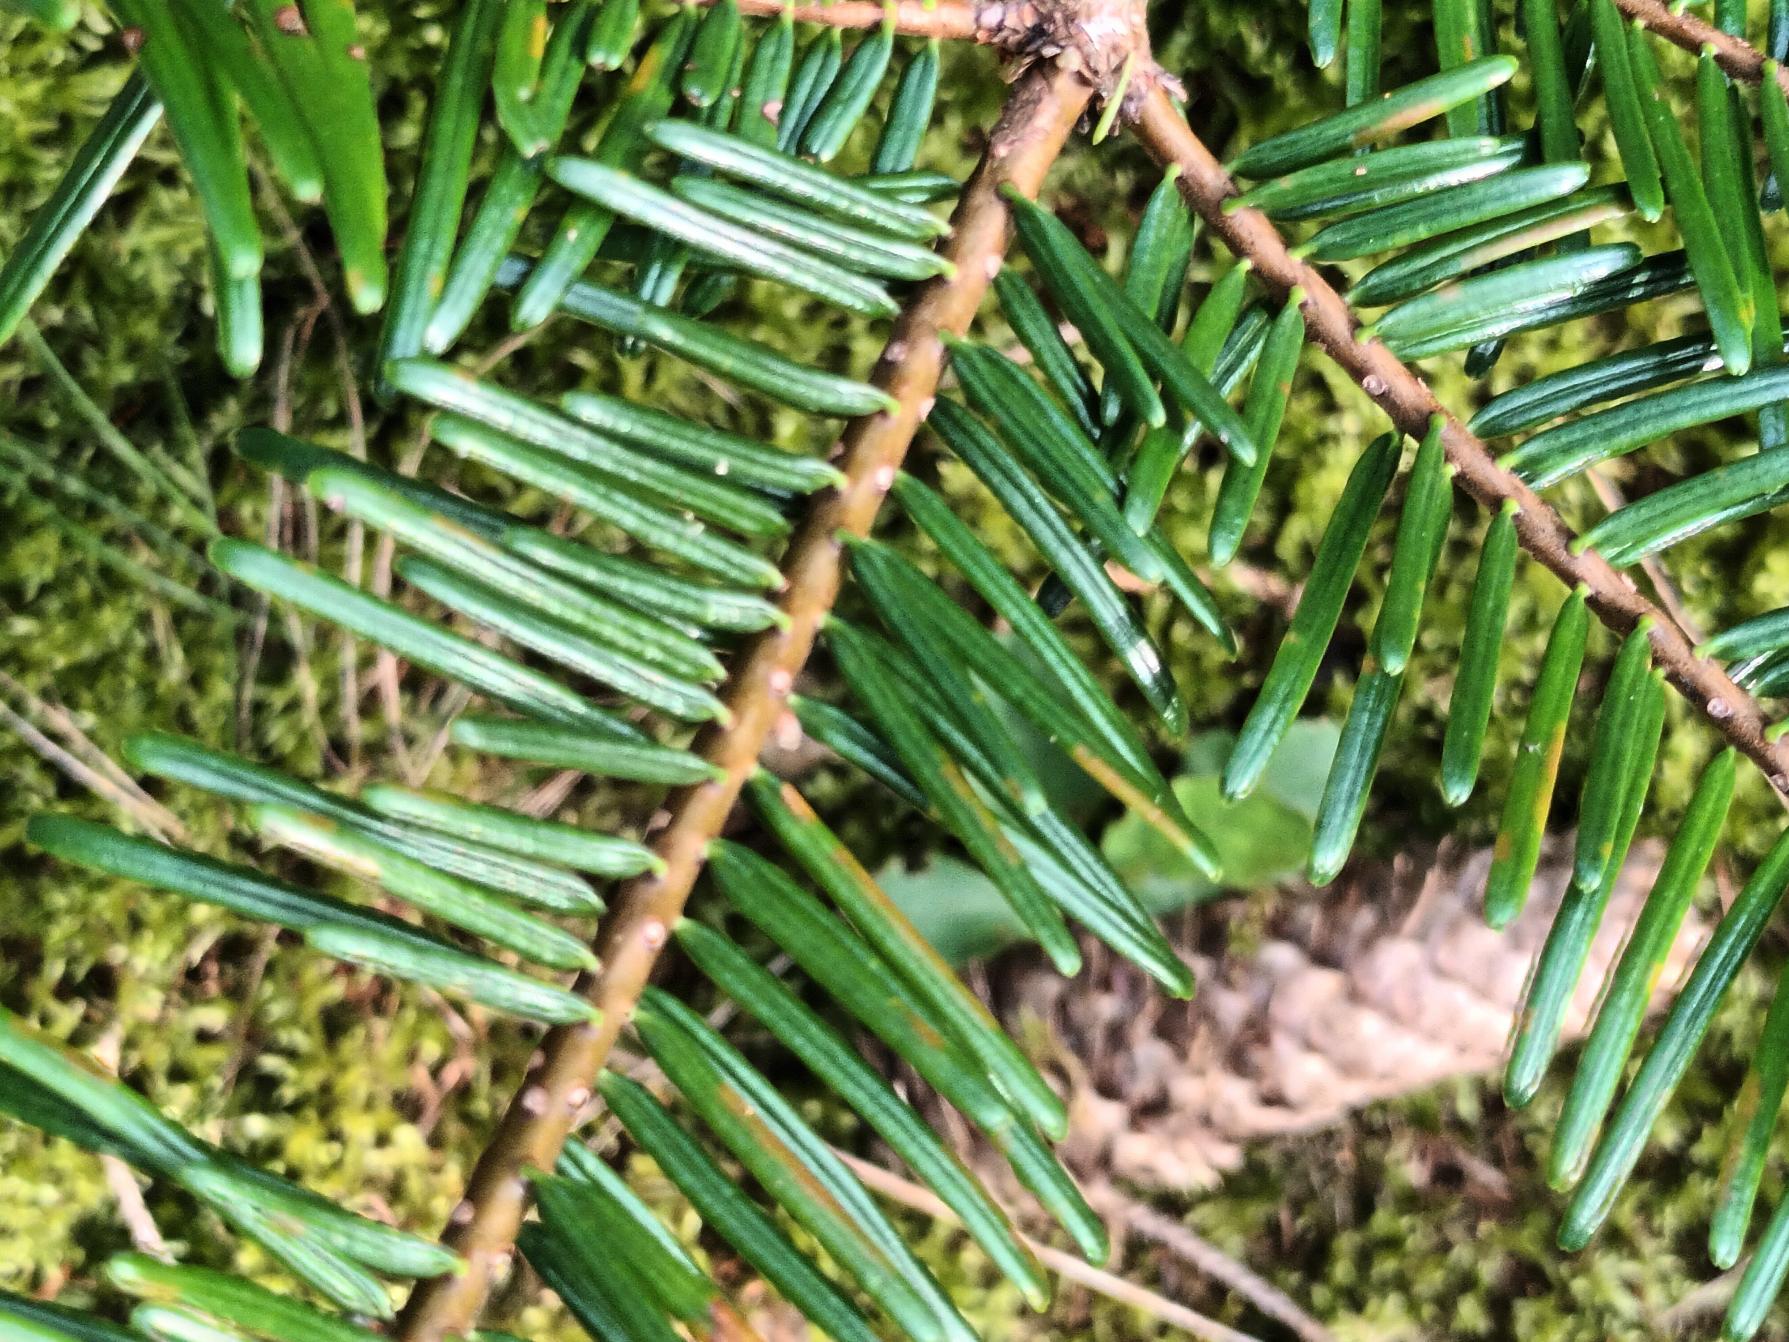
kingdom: Plantae
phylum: Tracheophyta
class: Pinopsida
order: Pinales
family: Pinaceae
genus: Abies
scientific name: Abies grandis
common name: Kæmpegran
